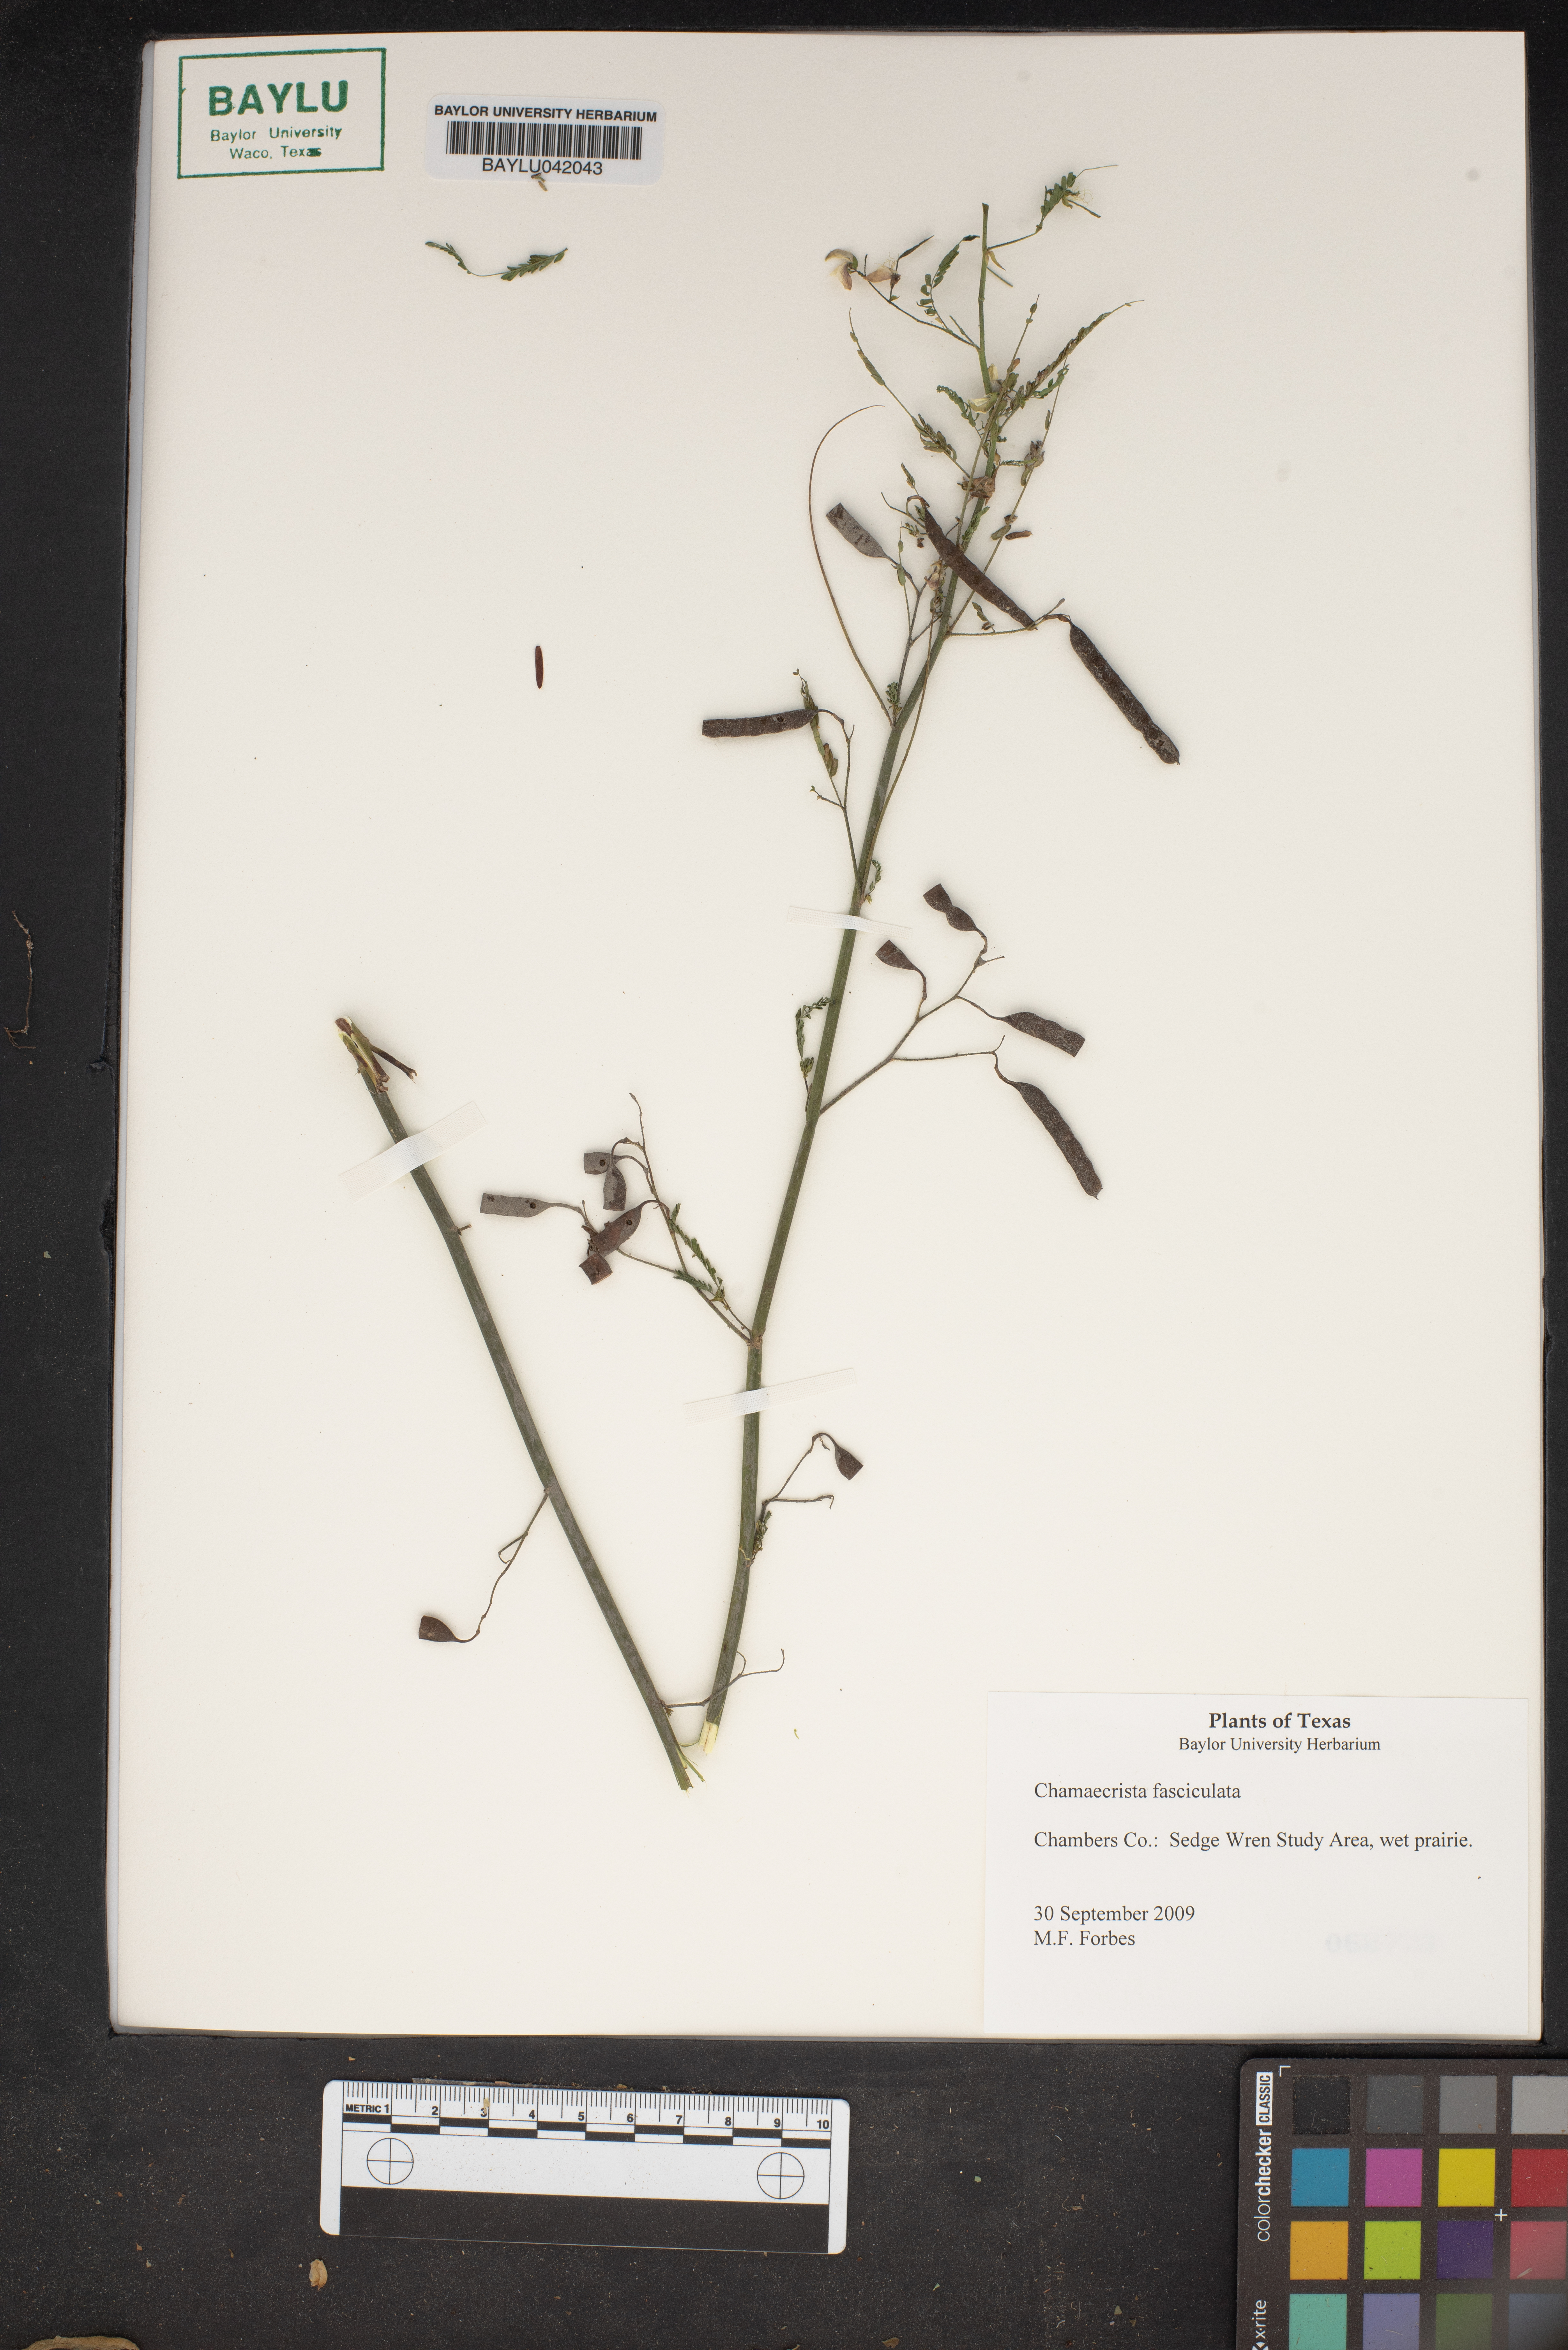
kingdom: Plantae
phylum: Tracheophyta
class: Magnoliopsida
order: Fabales
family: Fabaceae
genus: Chamaecrista
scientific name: Chamaecrista fasciculata
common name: Golden cassia
